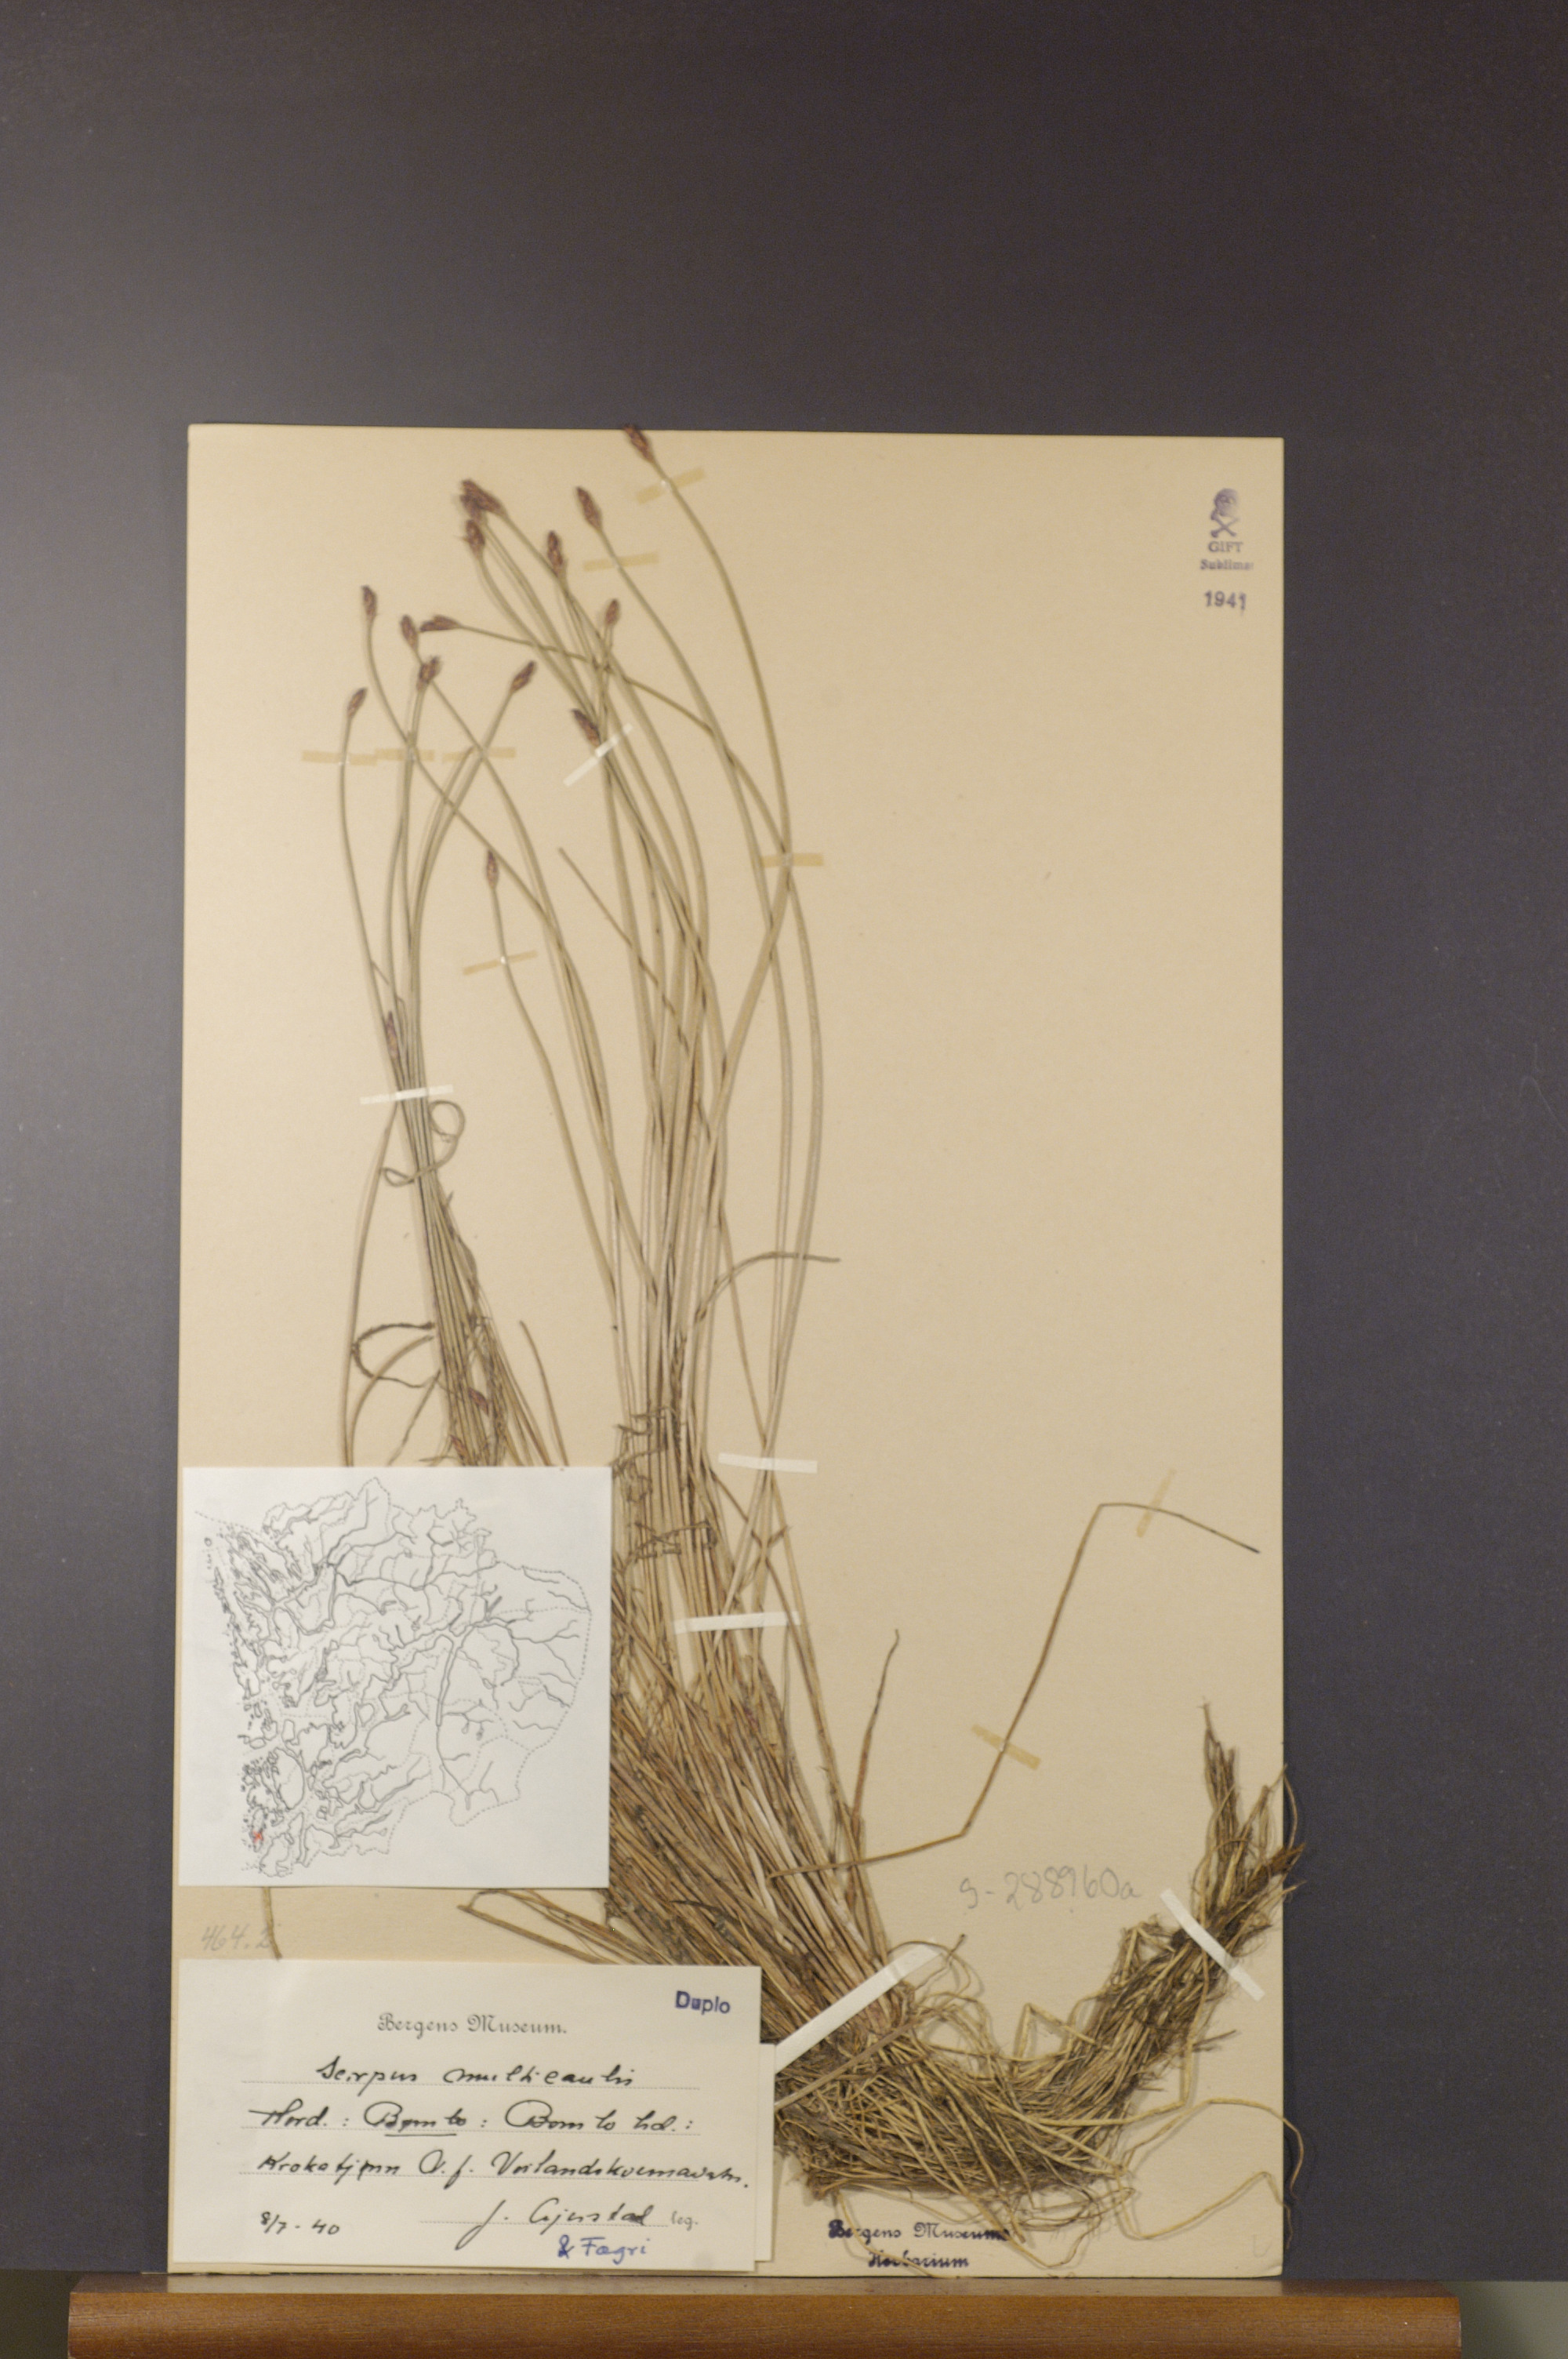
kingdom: Plantae
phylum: Tracheophyta
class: Liliopsida
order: Poales
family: Cyperaceae
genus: Eleocharis
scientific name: Eleocharis multicaulis
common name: Many-stalked spike-rush
